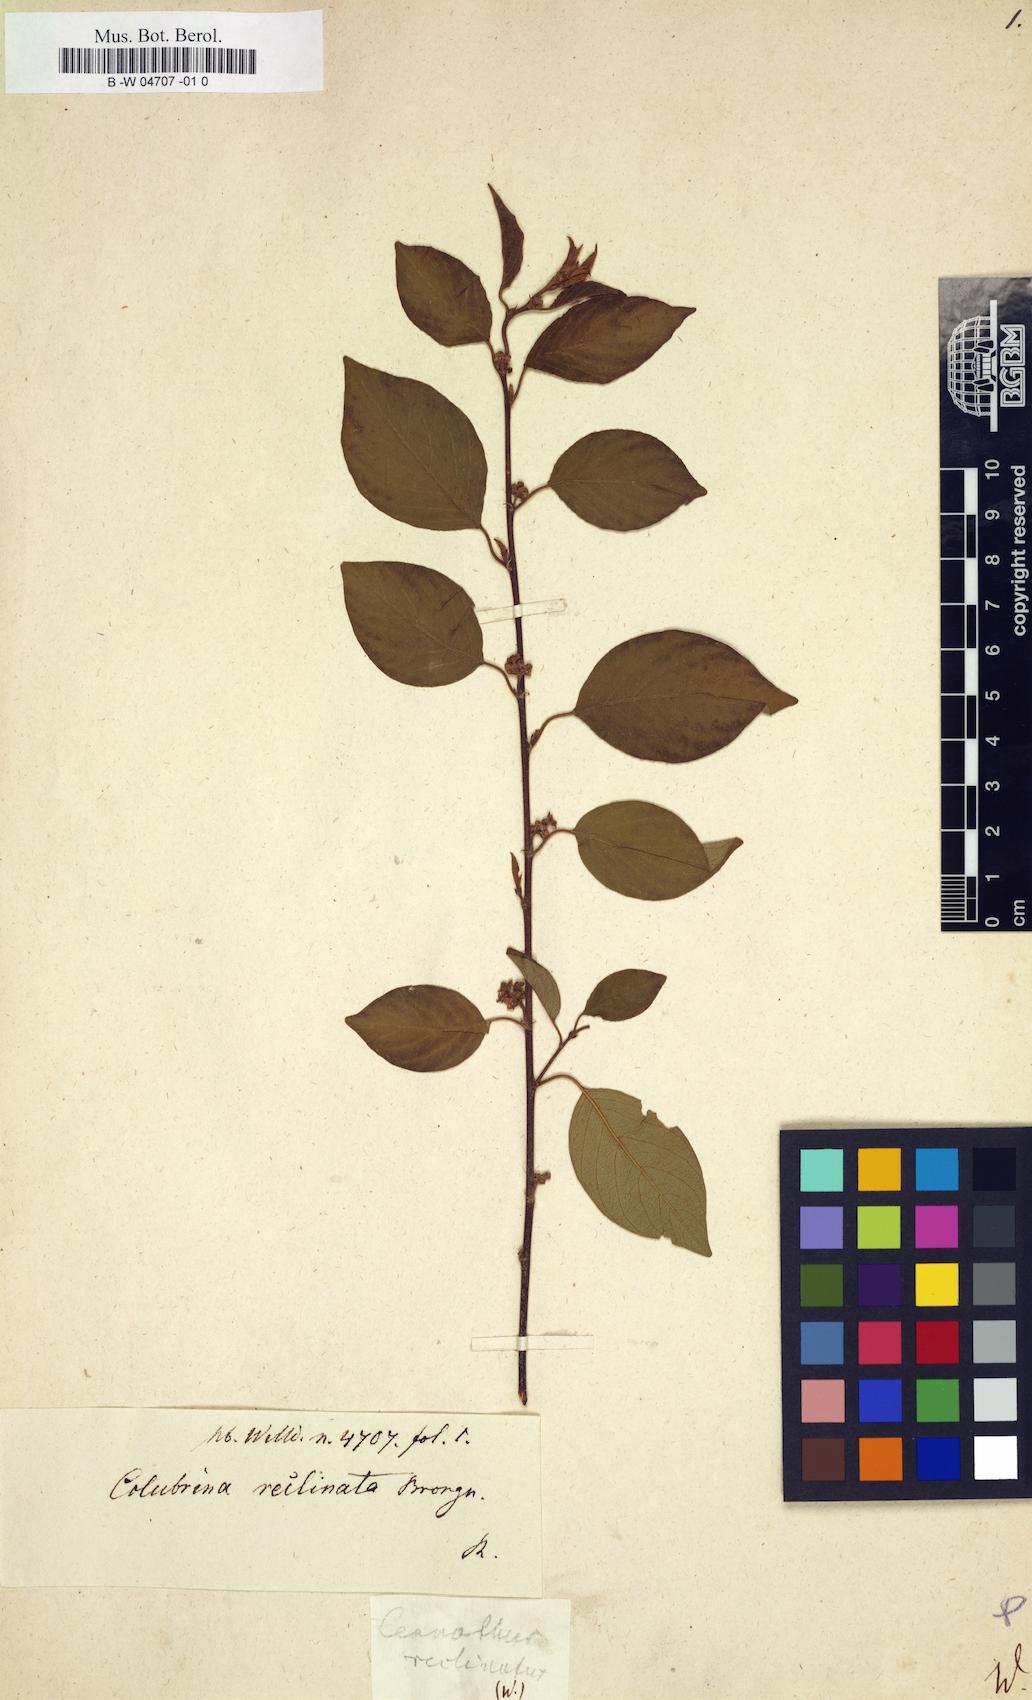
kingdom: Plantae
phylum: Tracheophyta
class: Magnoliopsida
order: Rosales
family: Rhamnaceae
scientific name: Rhamnaceae
